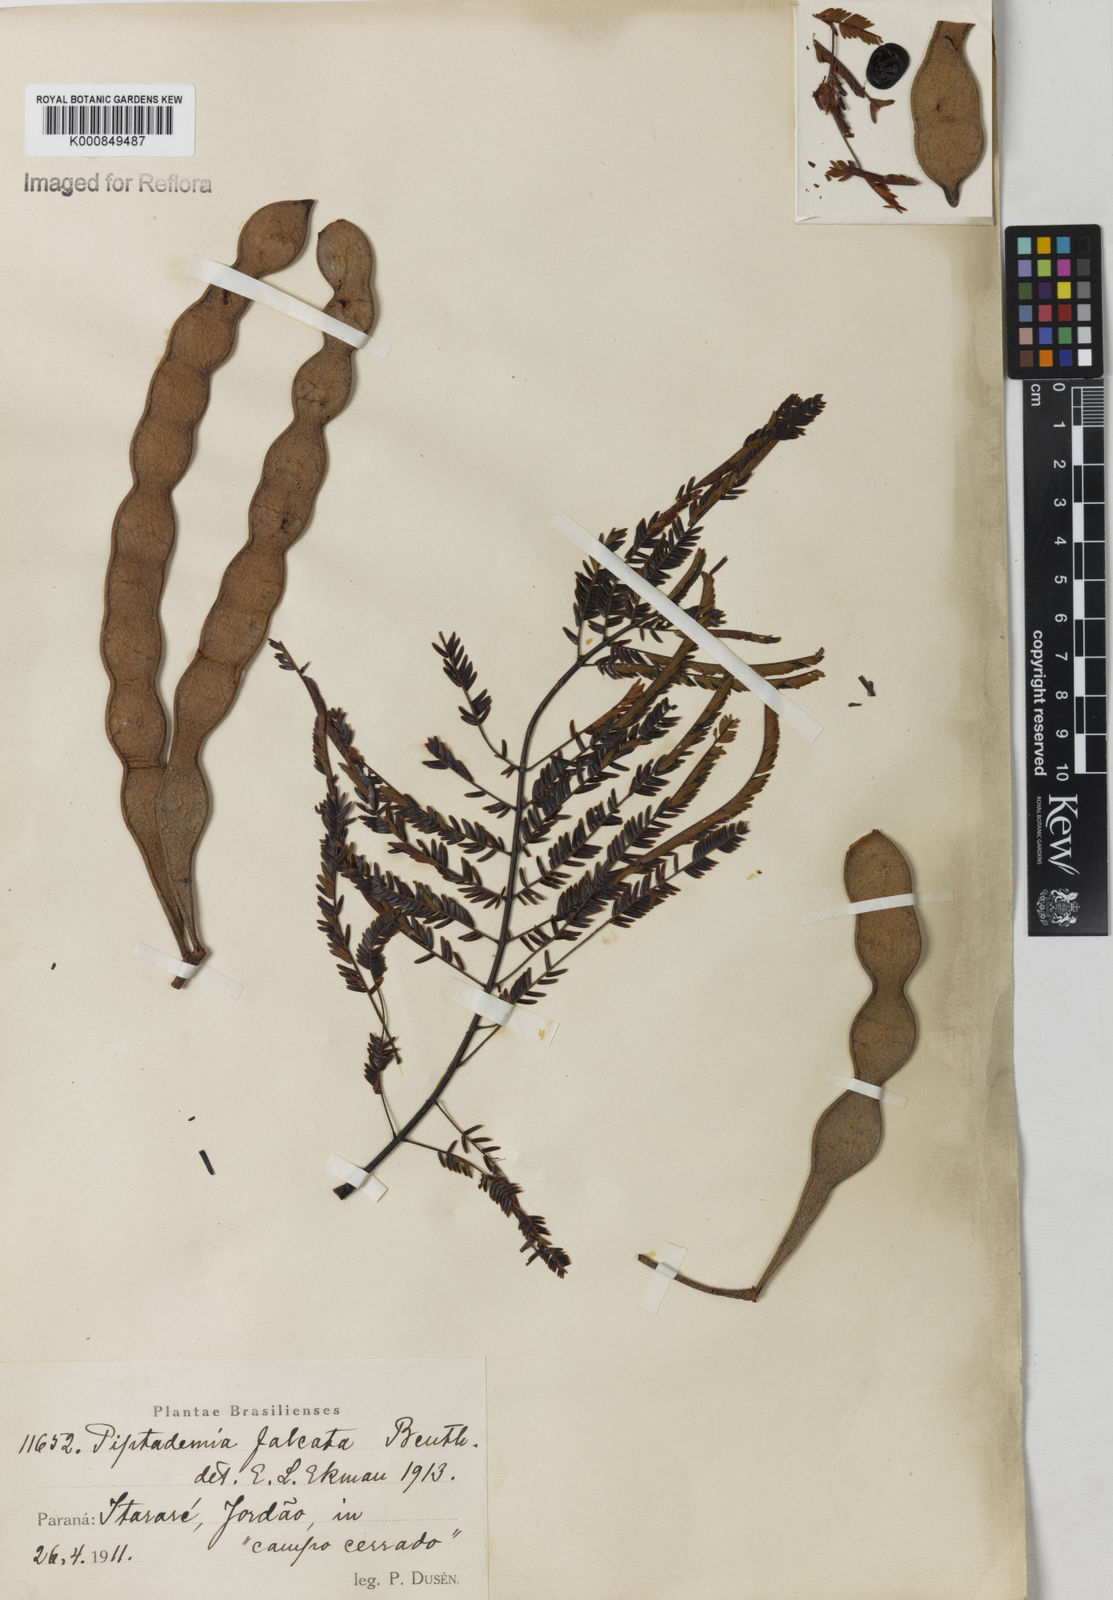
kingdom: Plantae
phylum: Tracheophyta
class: Magnoliopsida
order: Fabales
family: Fabaceae
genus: Anadenanthera
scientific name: Anadenanthera peregrina
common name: Cohoba
